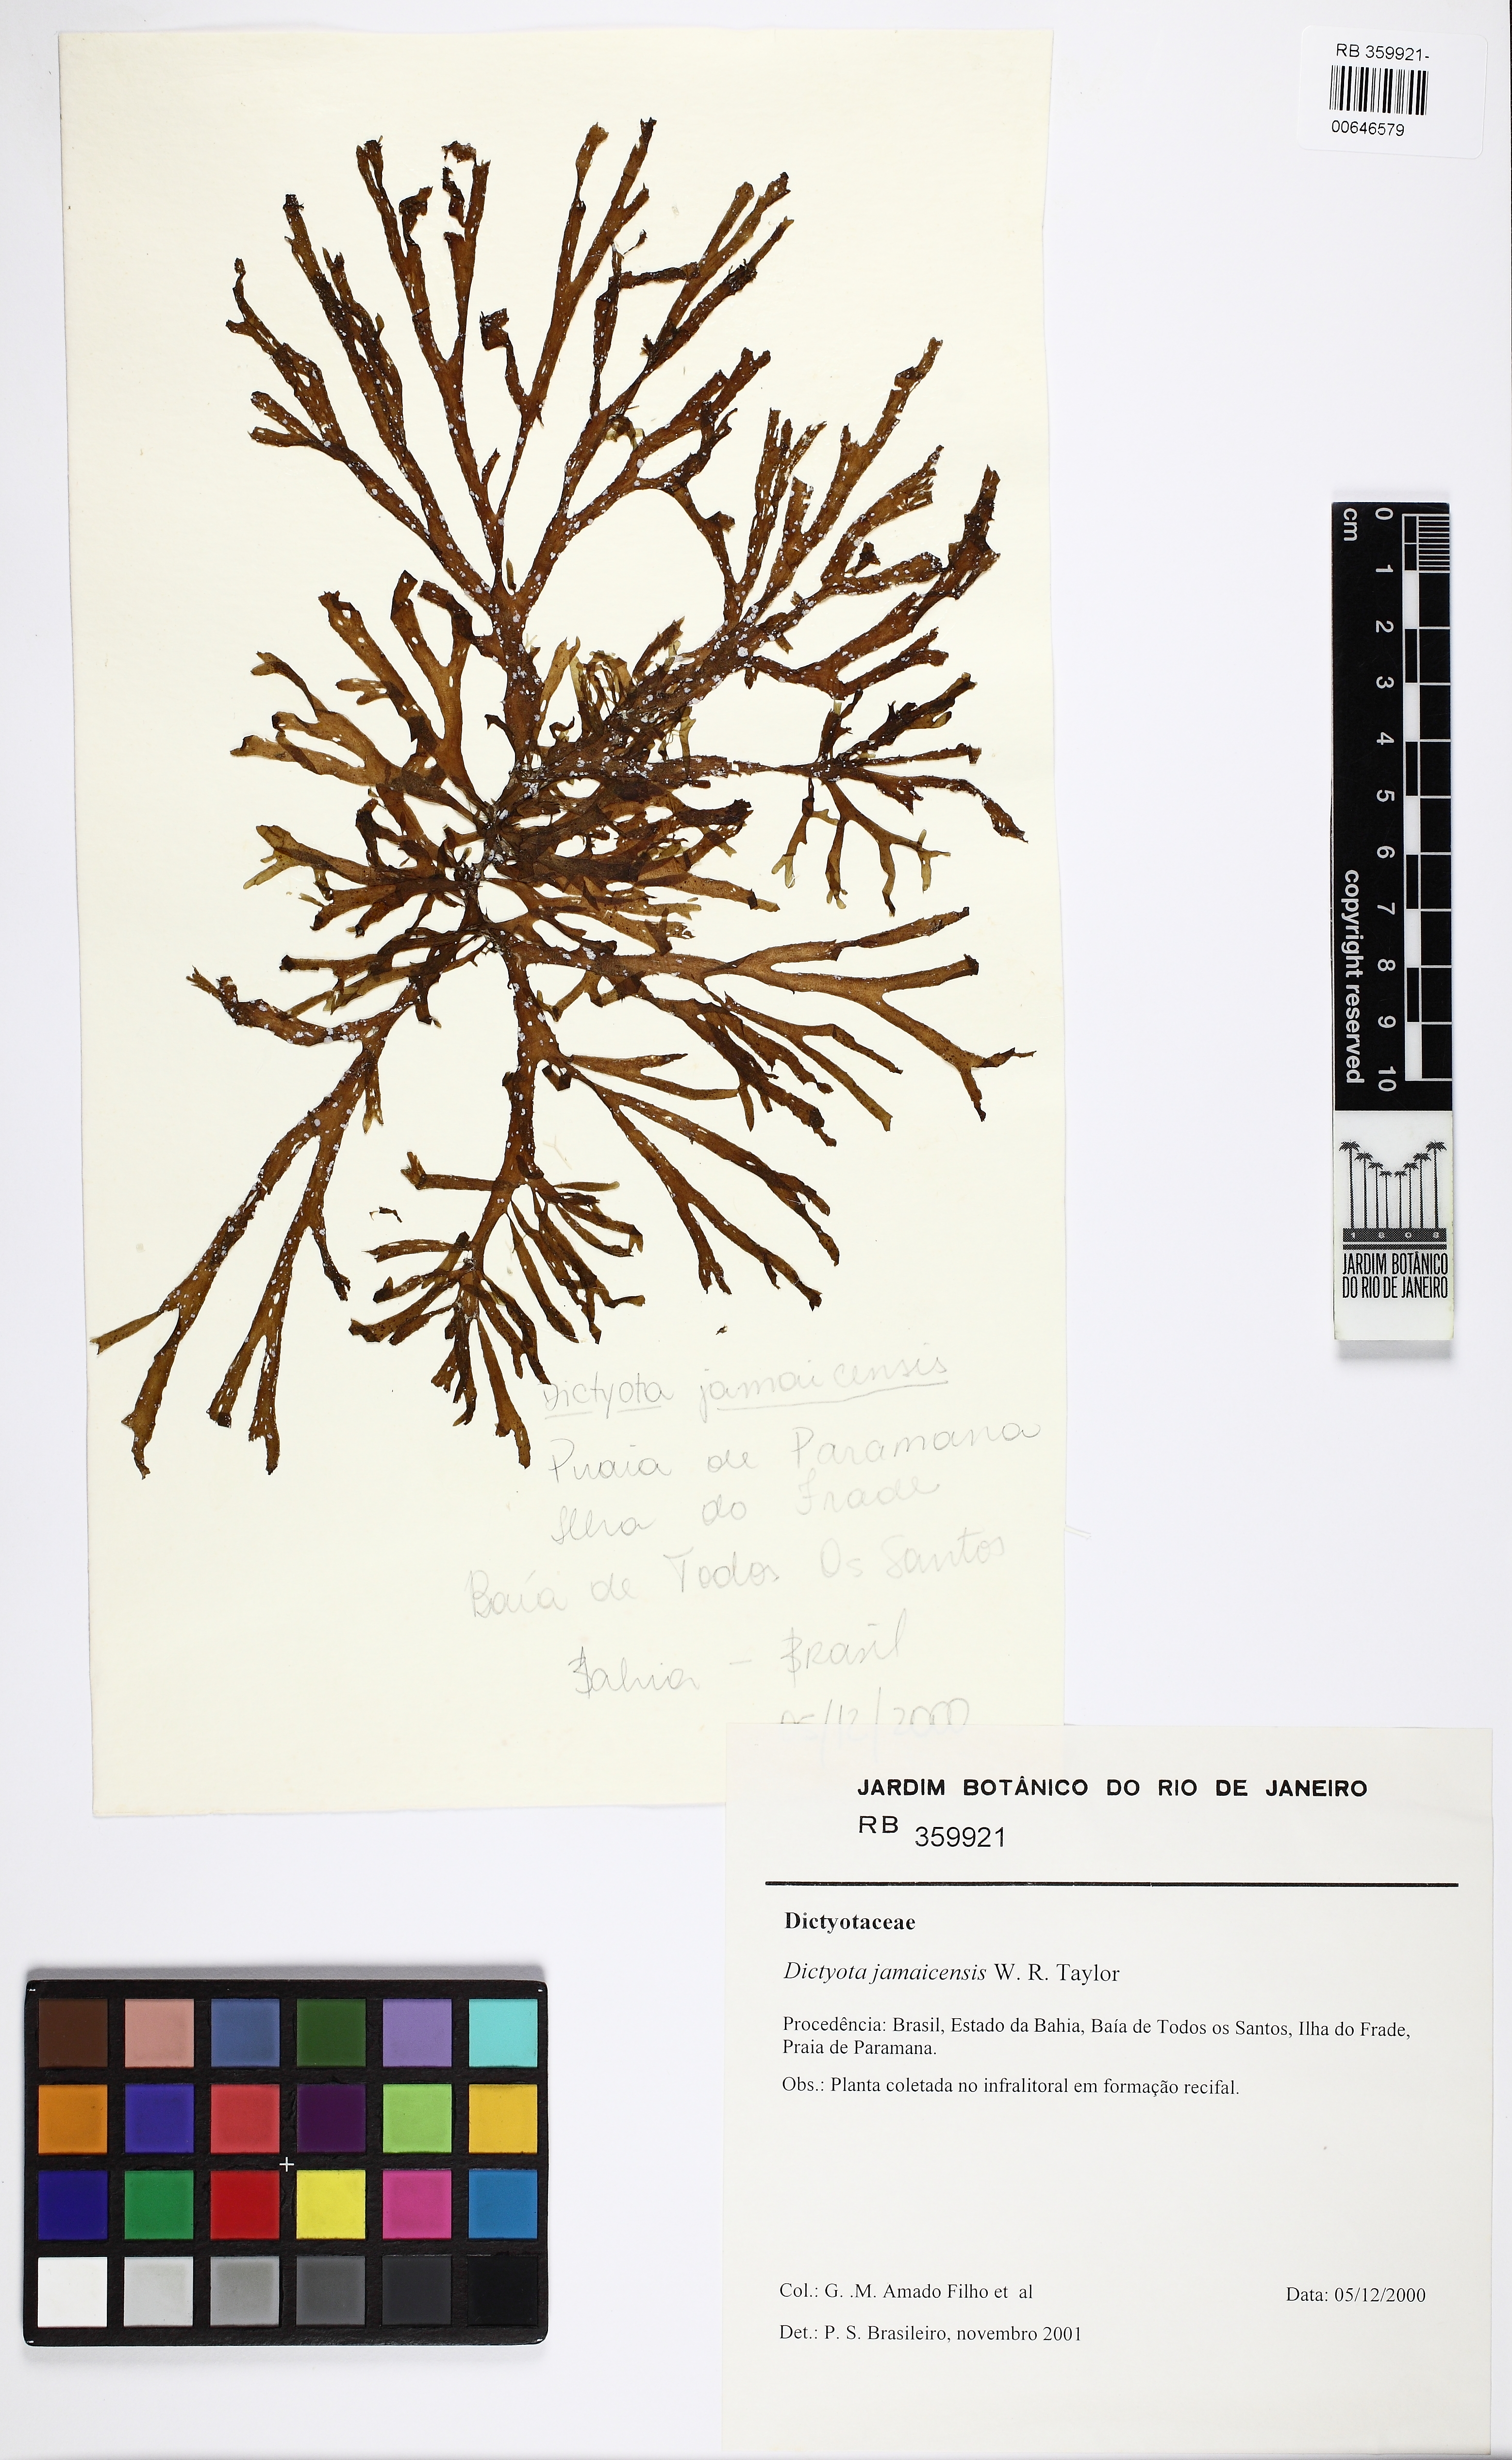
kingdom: Chromista
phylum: Ochrophyta
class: Phaeophyceae
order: Dictyotales
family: Dictyotaceae
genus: Dictyota
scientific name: Dictyota jamaicensis
